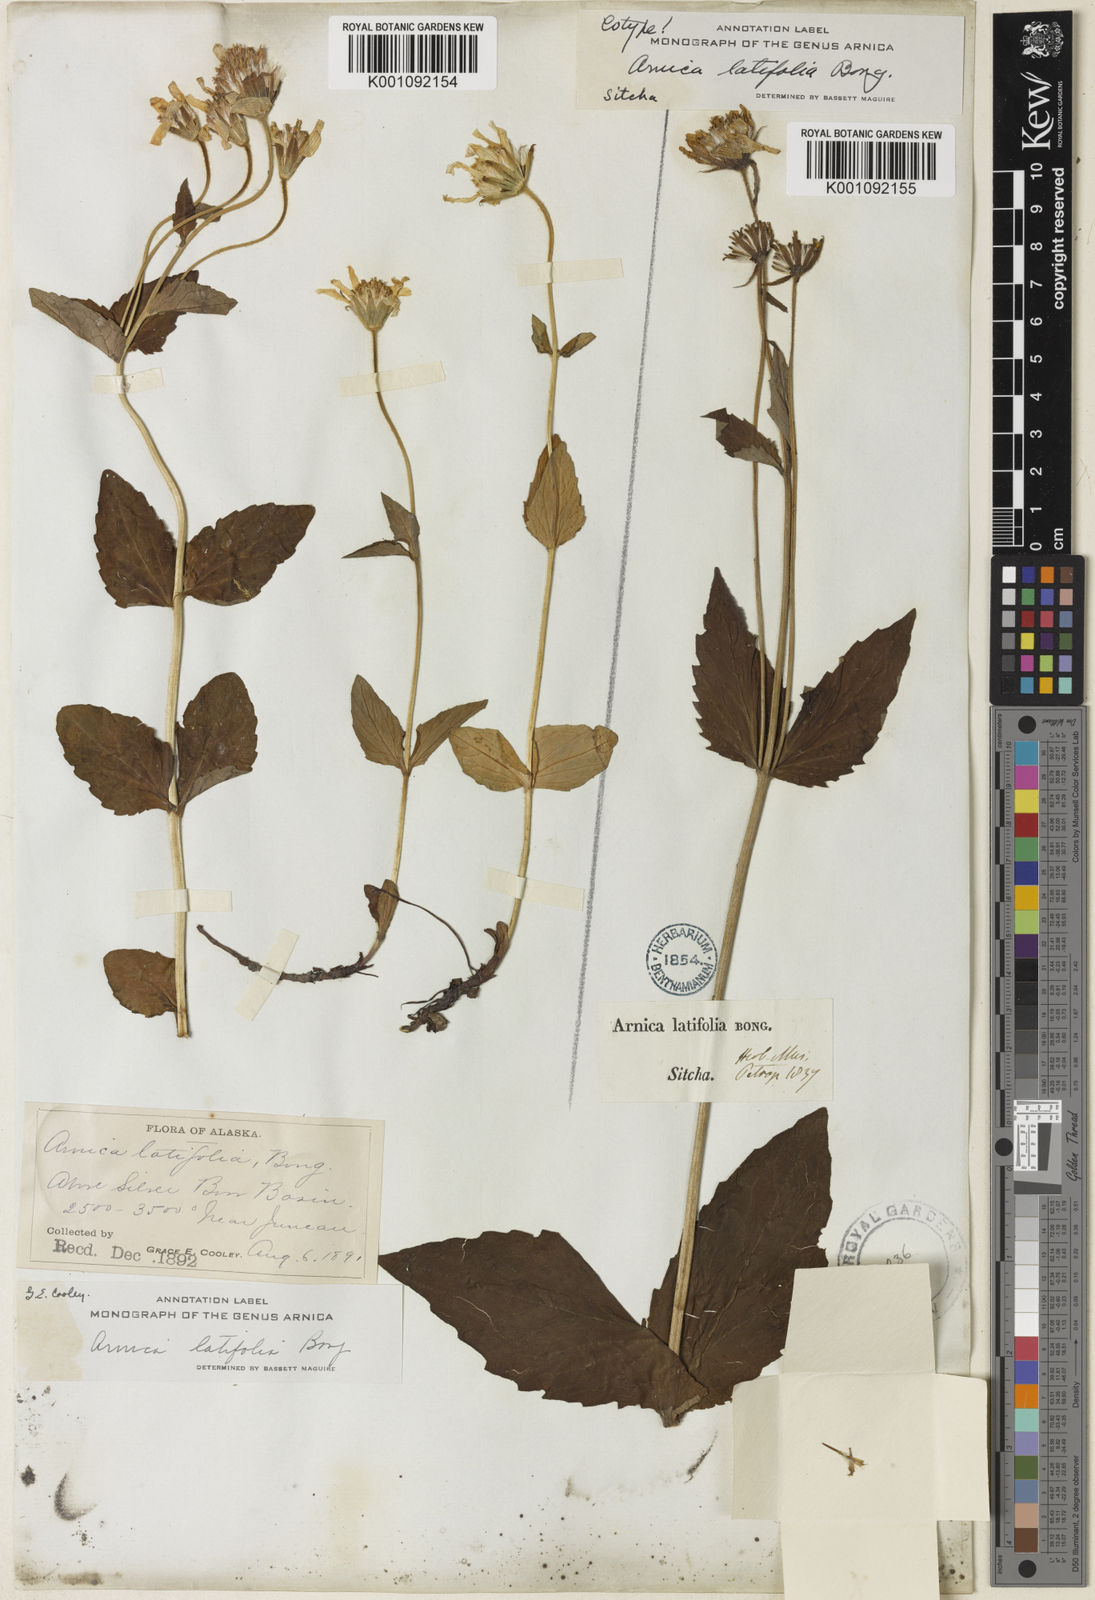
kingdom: Plantae
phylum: Tracheophyta
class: Magnoliopsida
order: Asterales
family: Asteraceae
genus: Arnica
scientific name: Arnica latifolia
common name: Arnica
